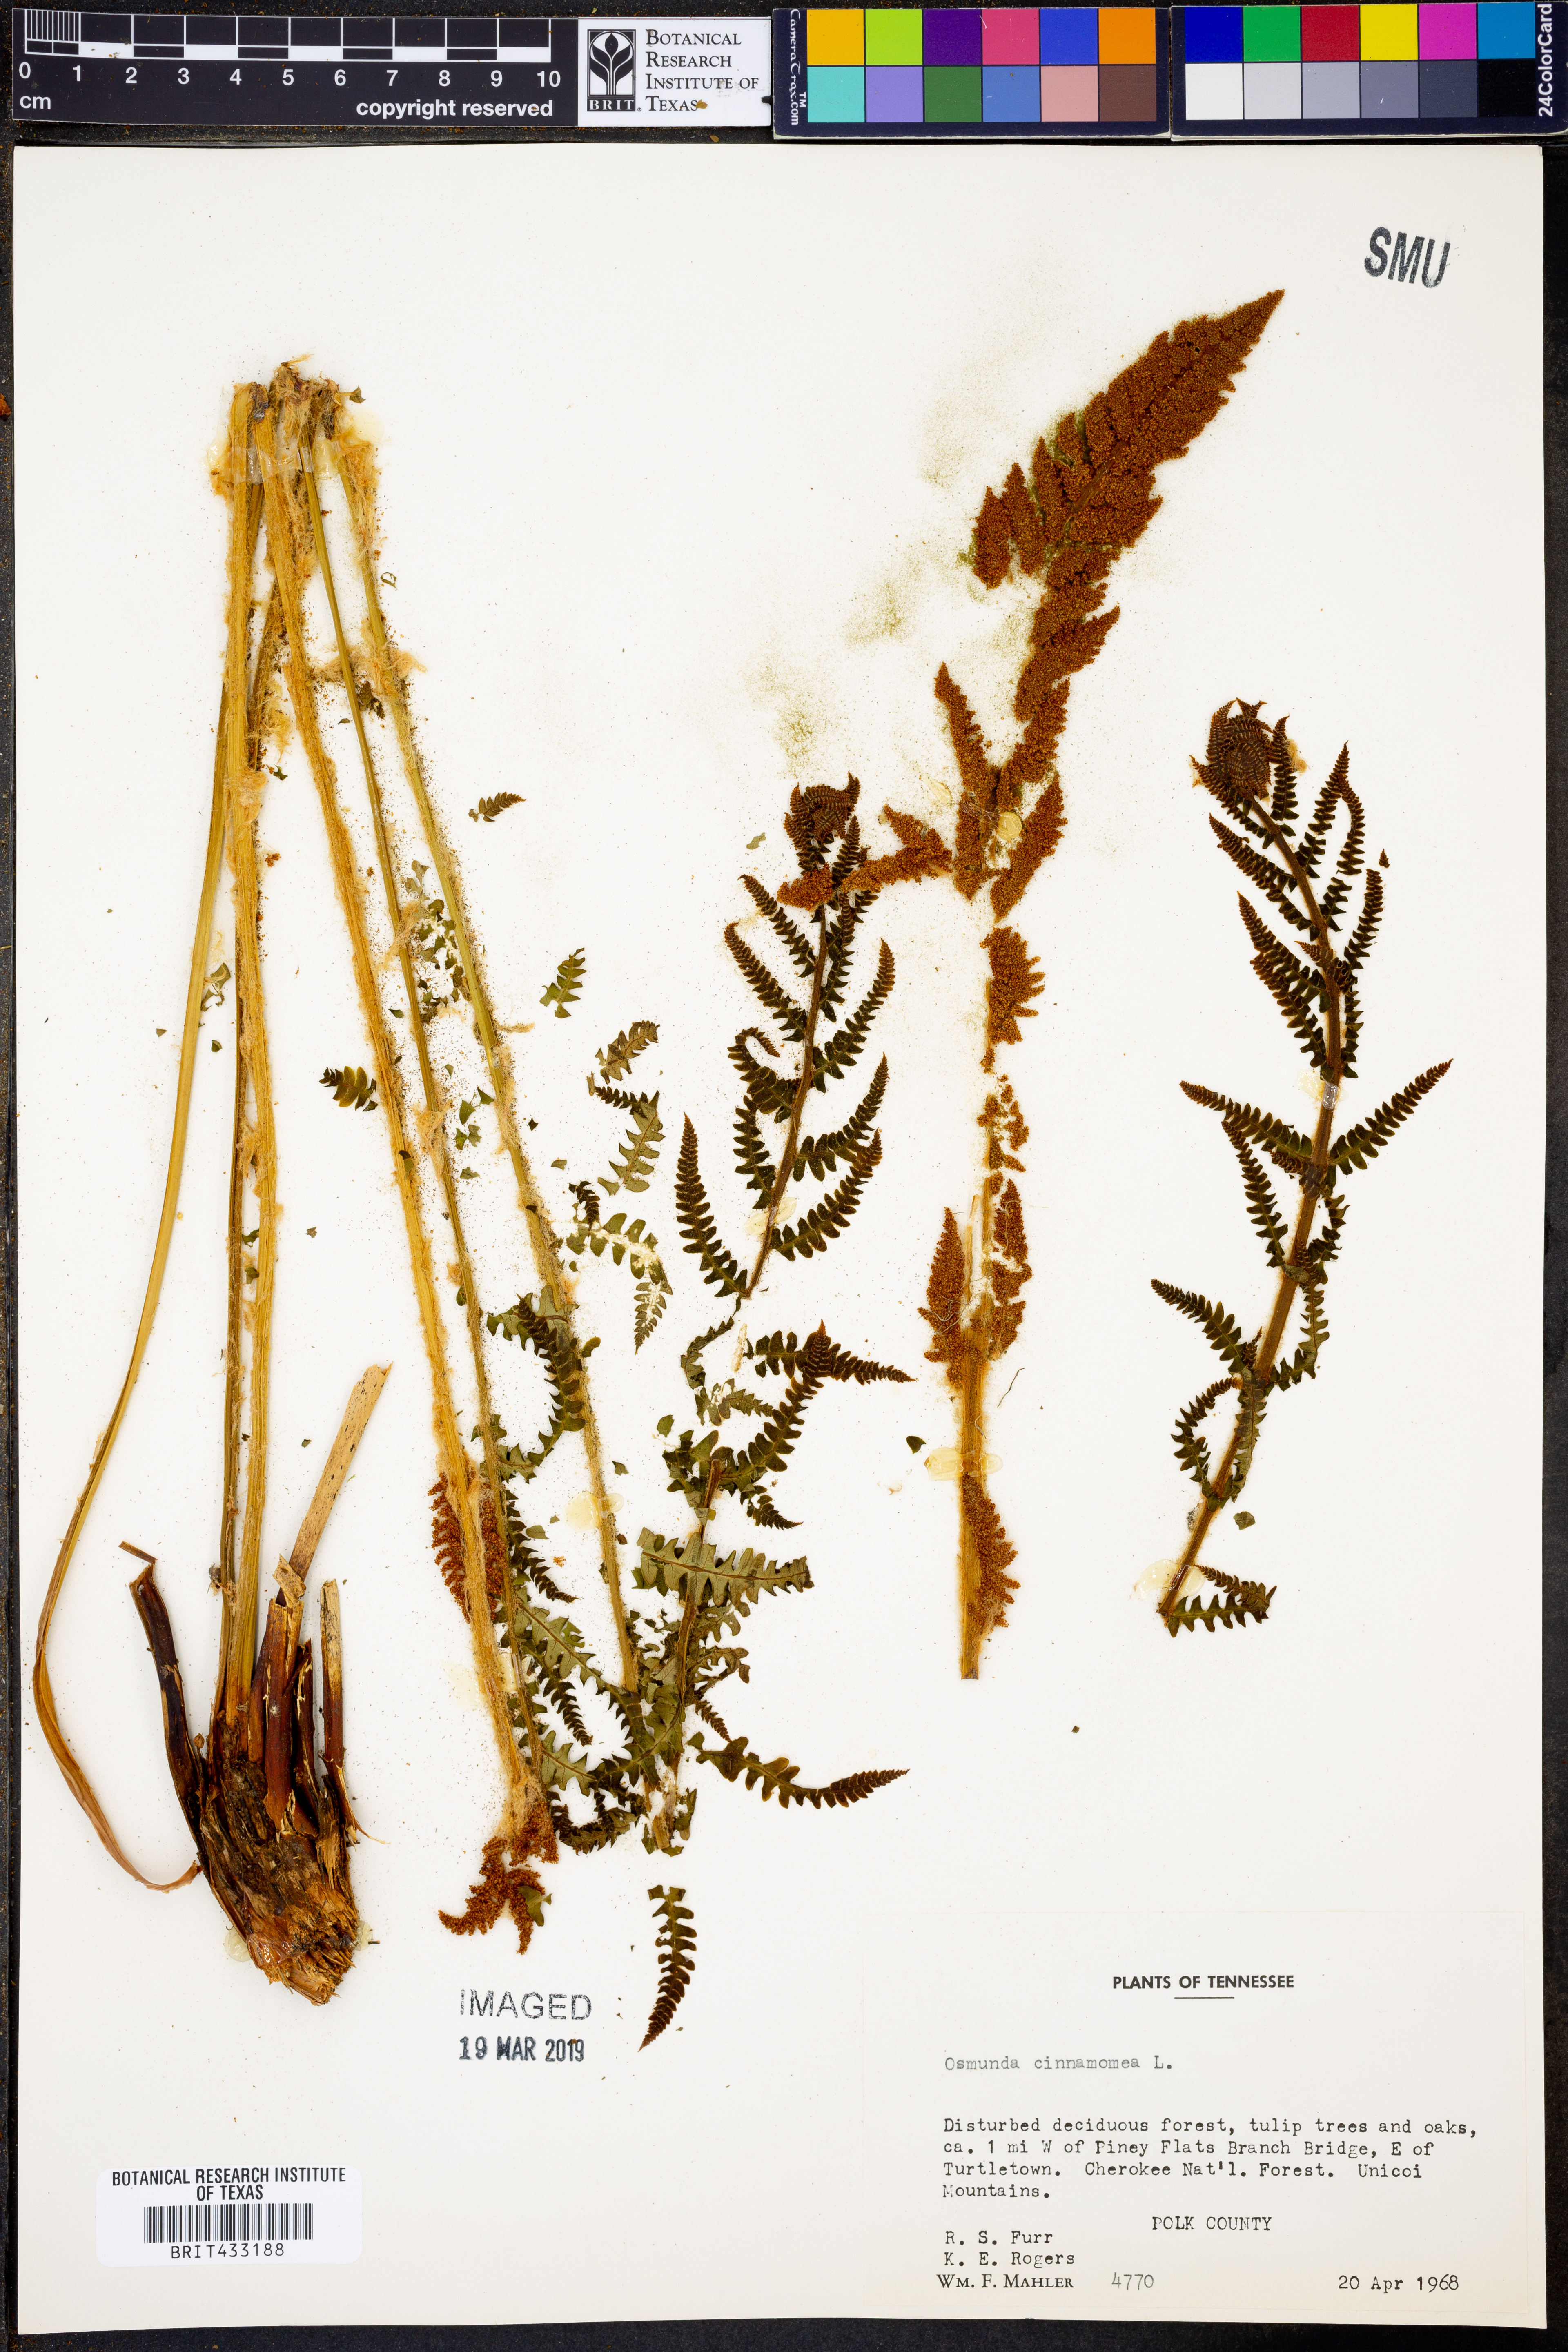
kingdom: Plantae
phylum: Tracheophyta
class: Polypodiopsida
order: Osmundales
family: Osmundaceae
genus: Osmundastrum
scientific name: Osmundastrum cinnamomeum
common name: Cinnamon fern
